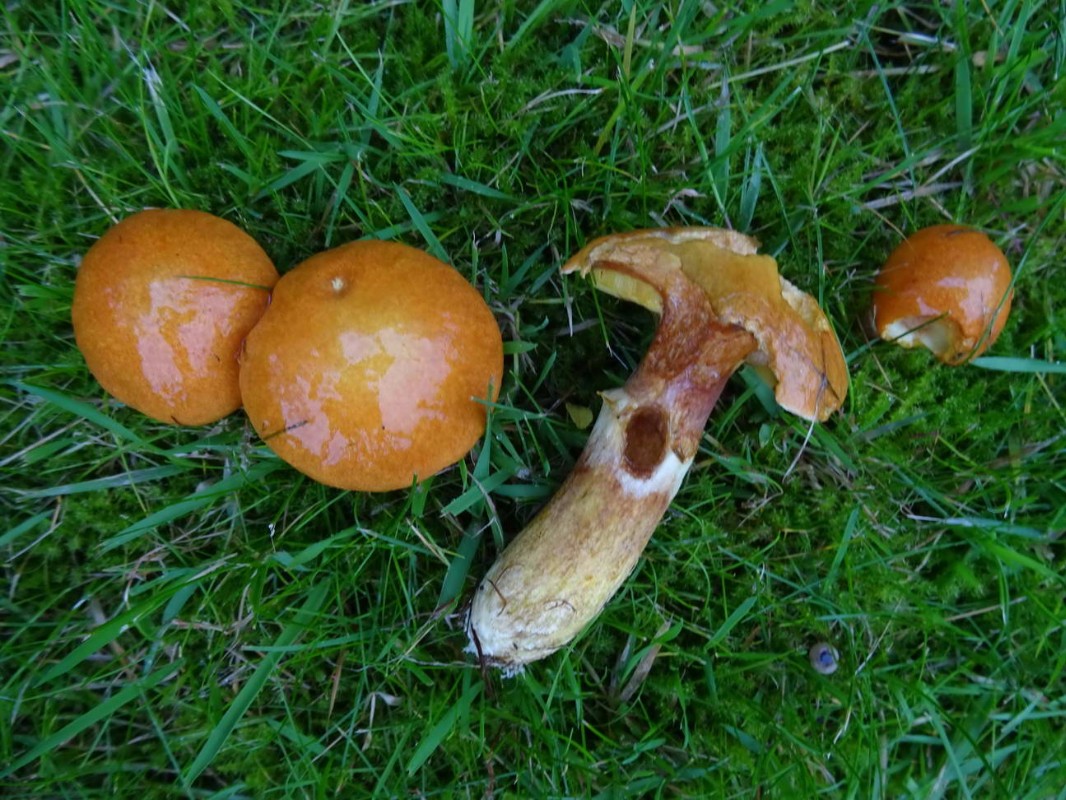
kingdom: Fungi
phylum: Basidiomycota
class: Agaricomycetes
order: Boletales
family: Suillaceae
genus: Suillus
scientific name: Suillus grevillei
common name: lærke-slimrørhat
